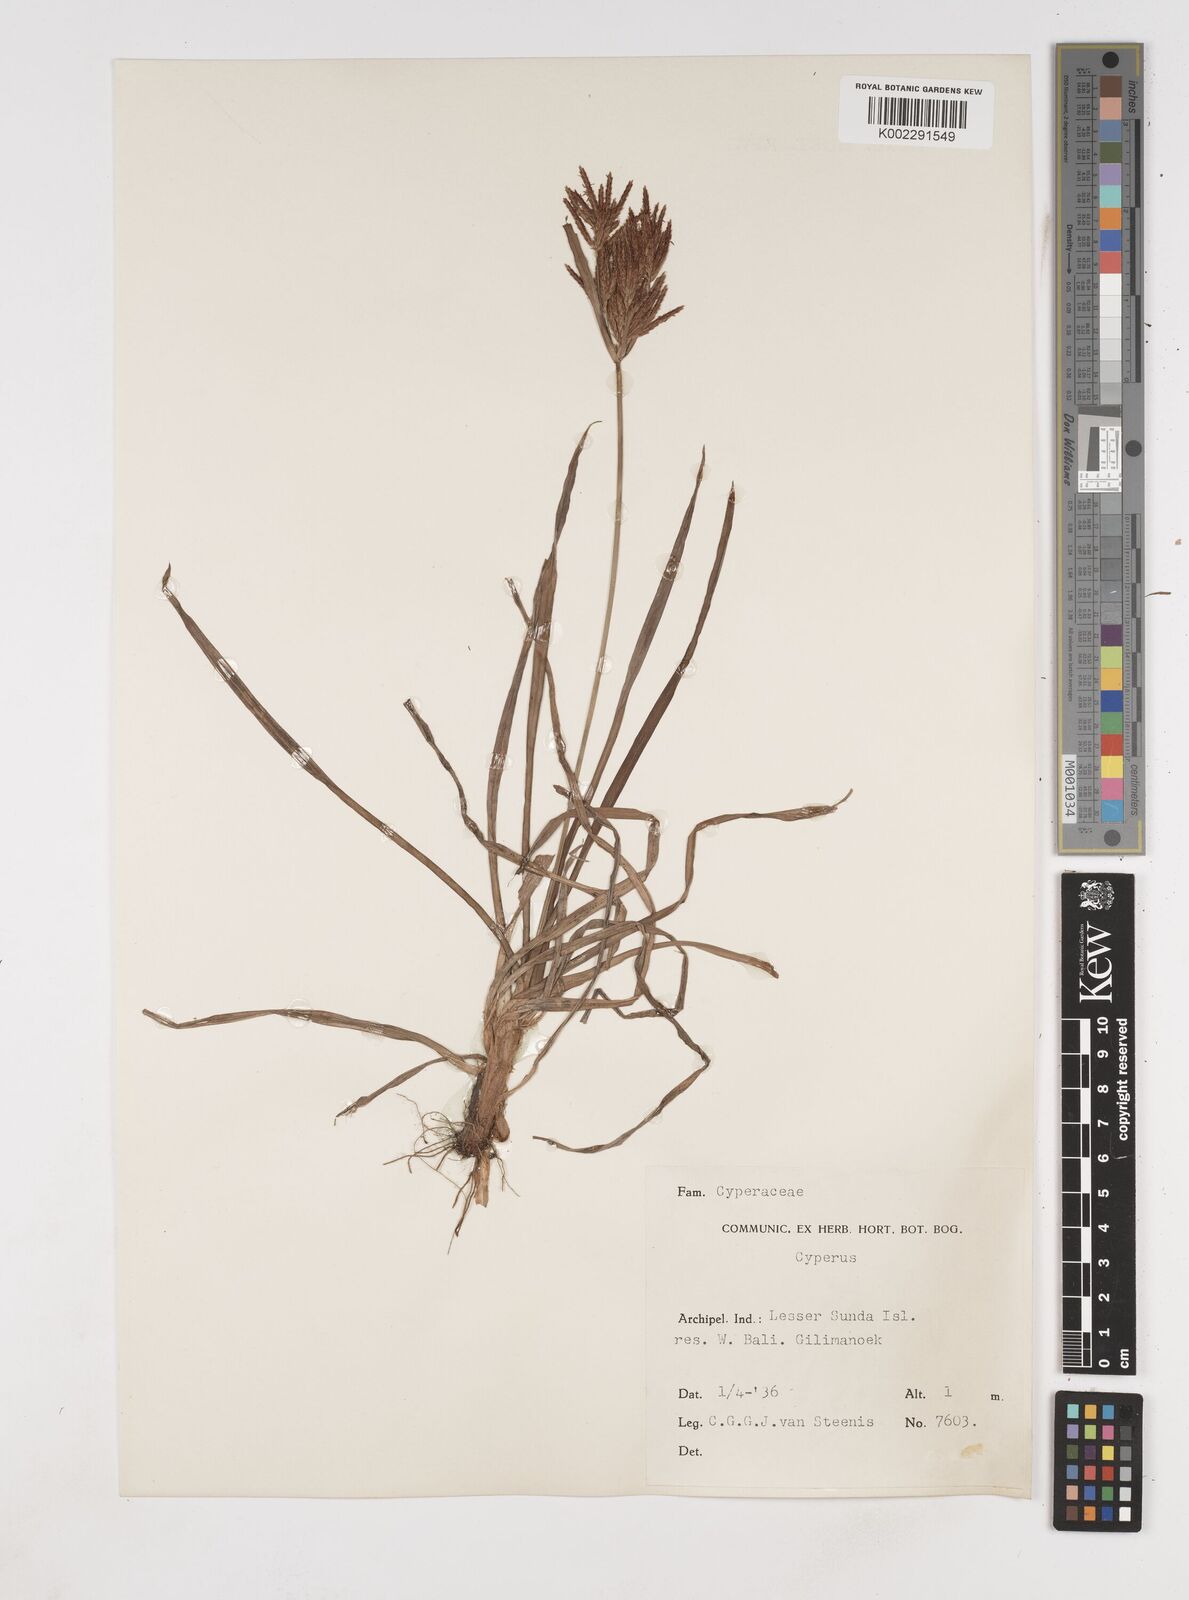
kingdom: Plantae
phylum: Tracheophyta
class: Liliopsida
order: Poales
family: Cyperaceae
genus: Cyperus
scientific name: Cyperus rotundus
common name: Nutgrass
